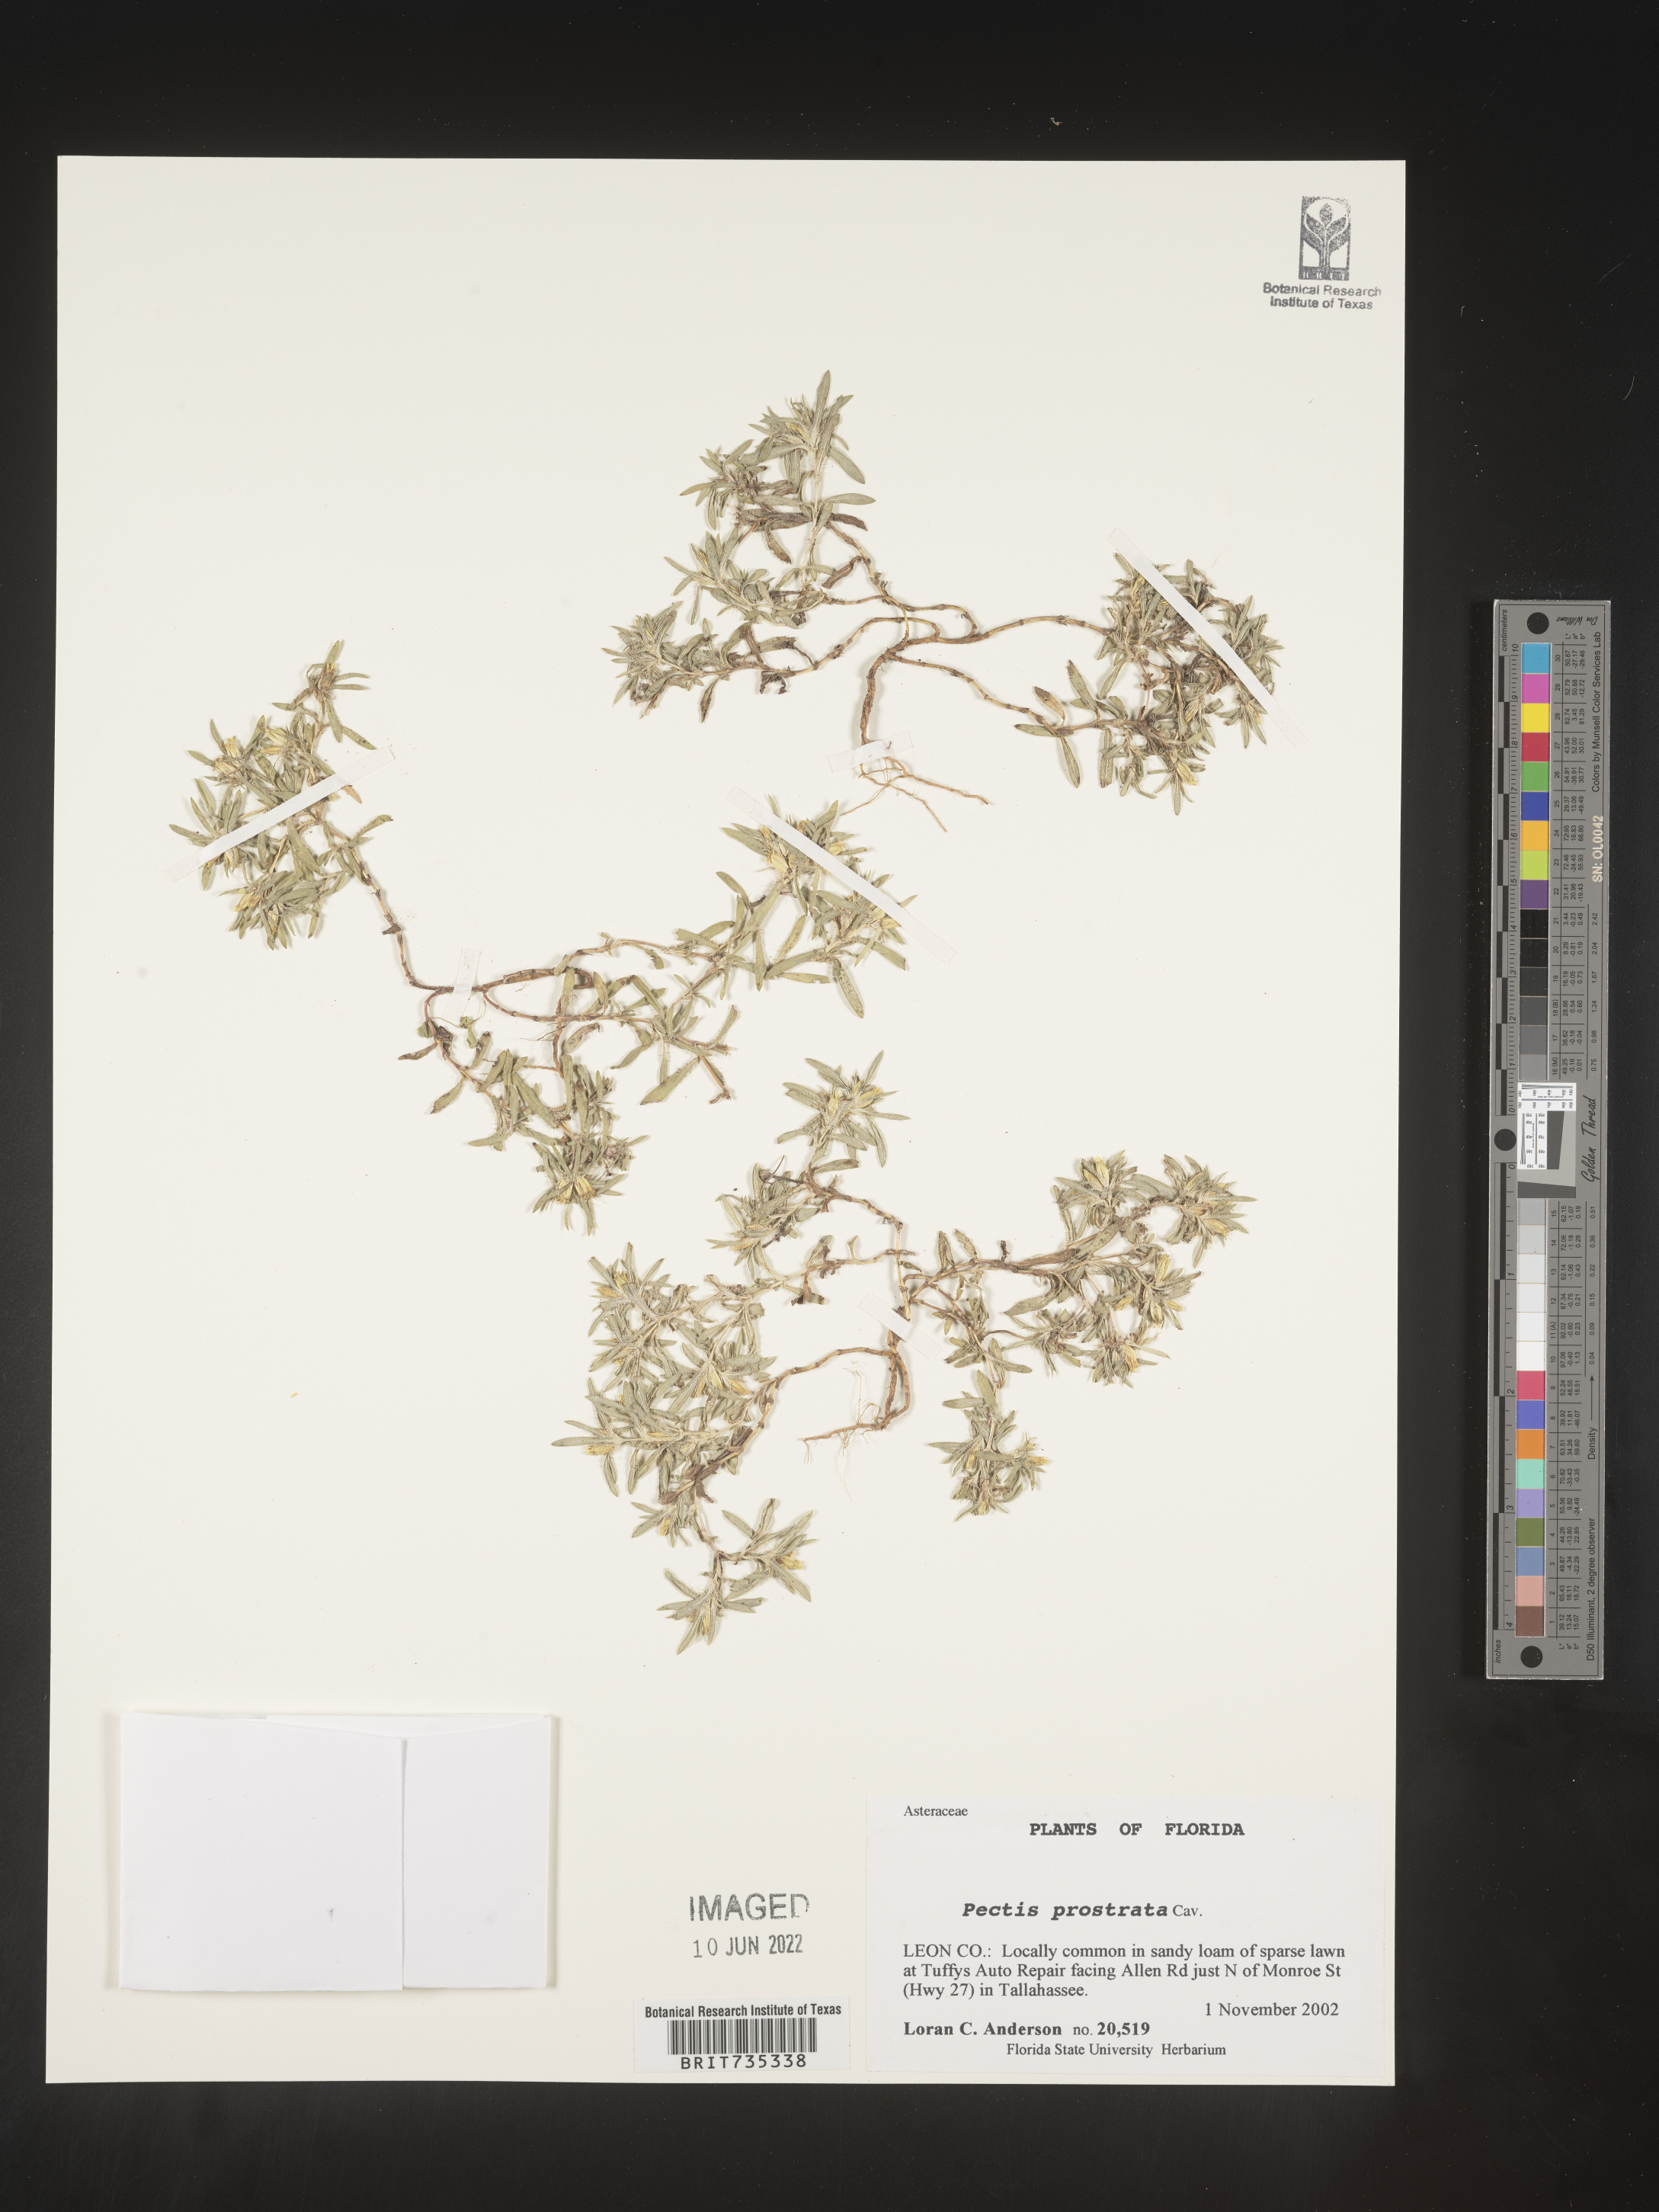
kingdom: Plantae
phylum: Tracheophyta
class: Magnoliopsida
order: Asterales
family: Asteraceae
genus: Pectis
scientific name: Pectis prostrata
